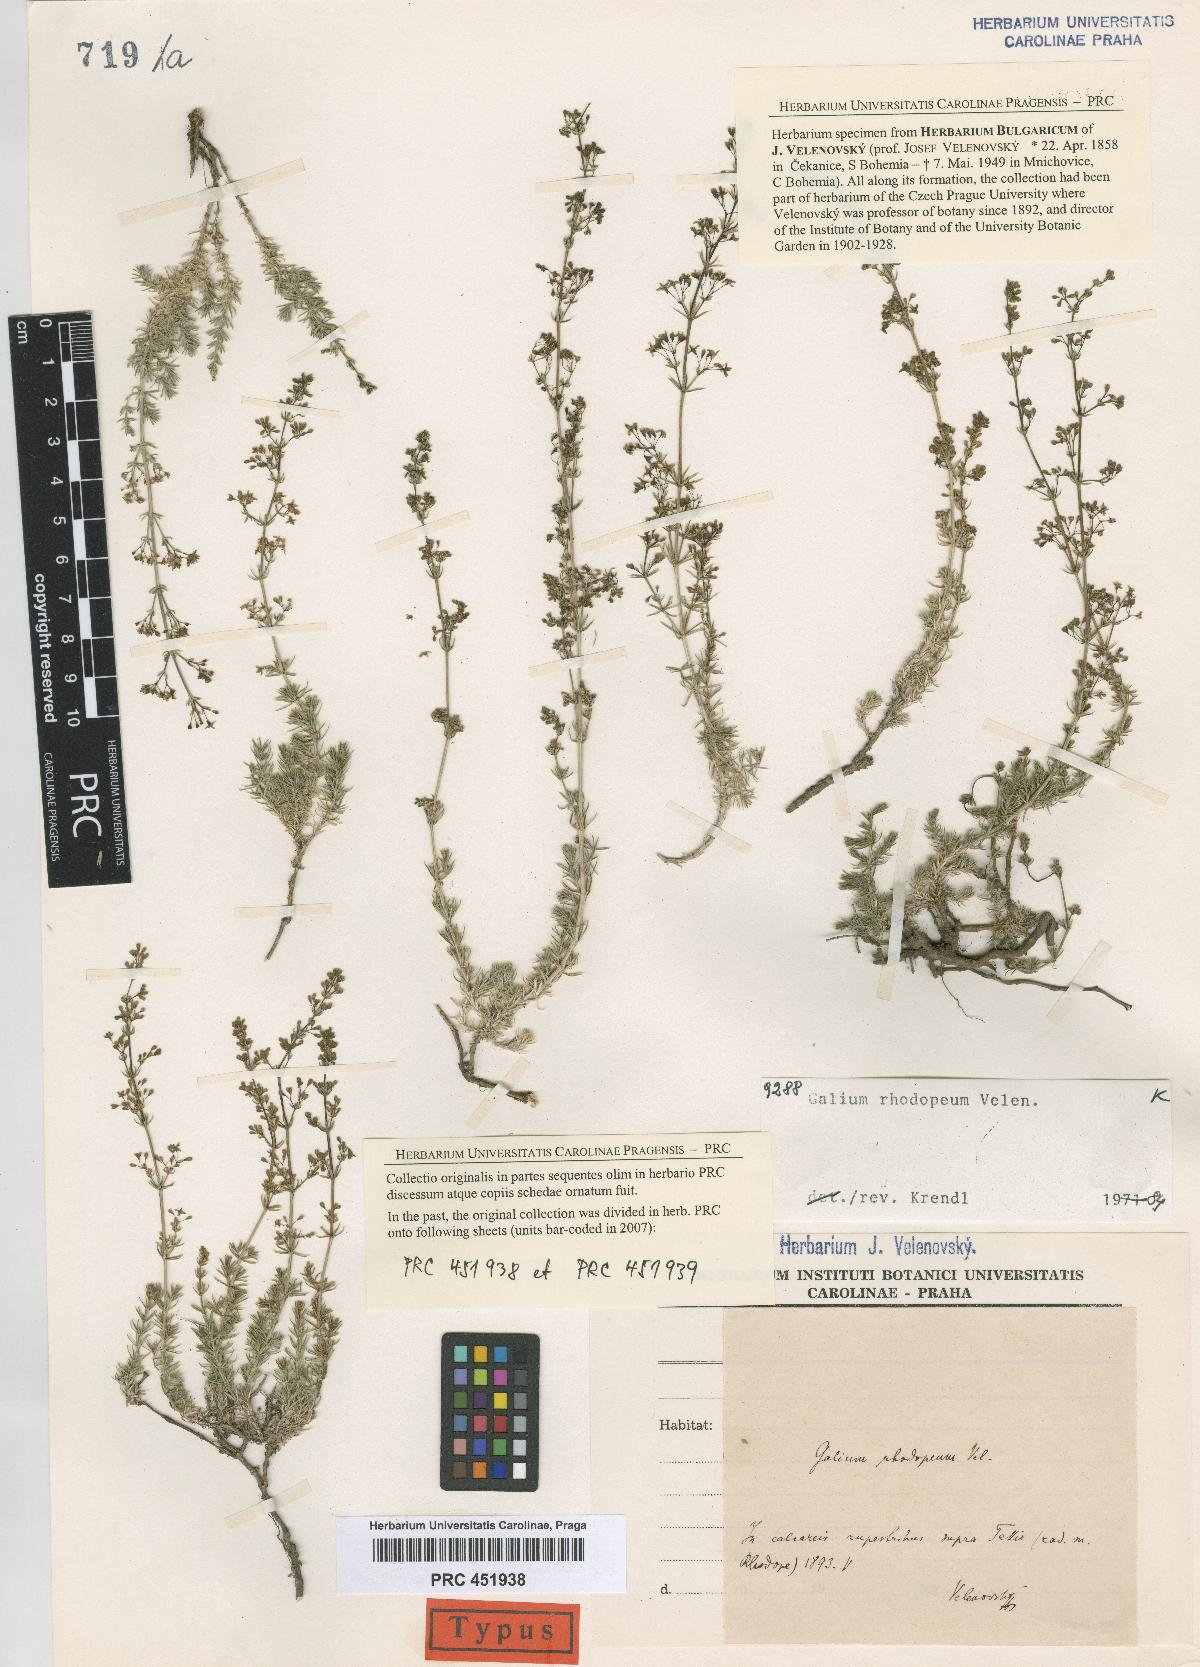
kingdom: Plantae
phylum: Tracheophyta
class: Magnoliopsida
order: Gentianales
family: Rubiaceae
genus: Galium
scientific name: Galium rhodopeum
